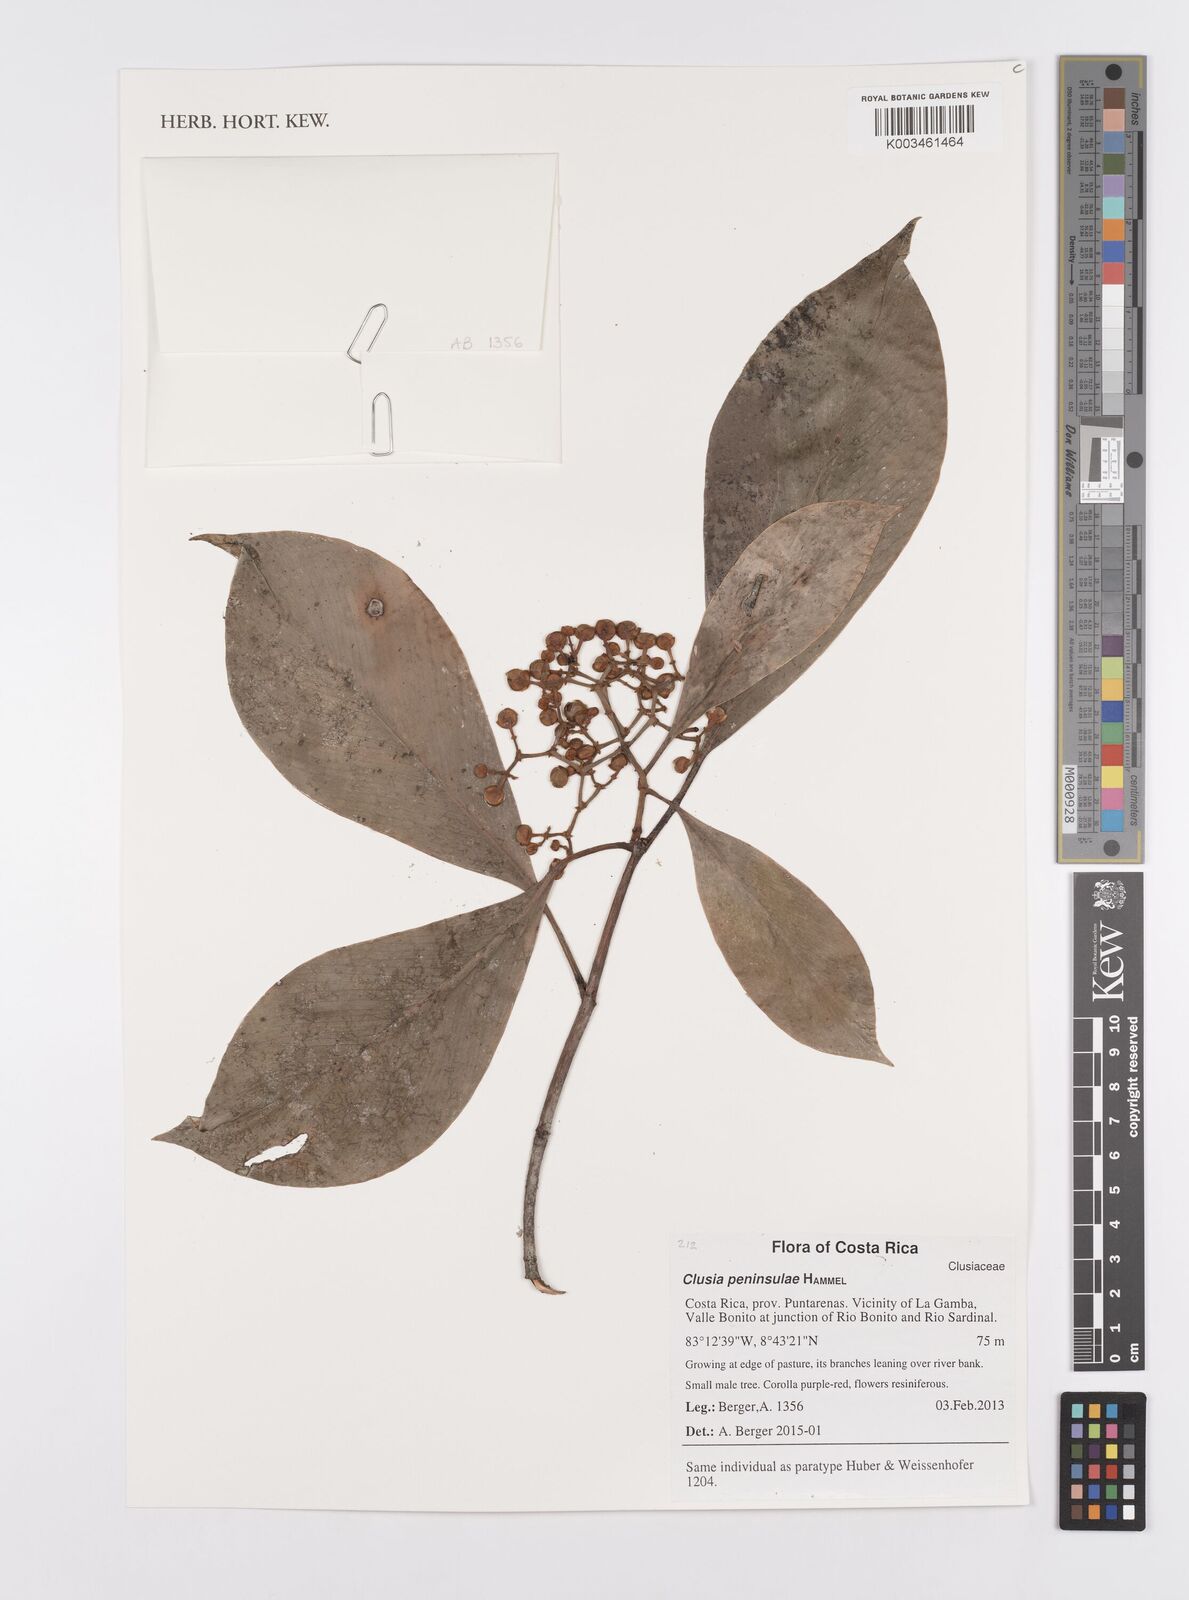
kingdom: Plantae
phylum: Tracheophyta
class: Magnoliopsida
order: Malpighiales
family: Clusiaceae
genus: Clusia
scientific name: Clusia peninsulae
